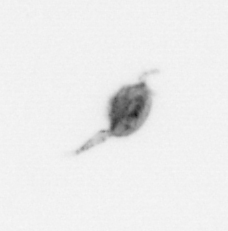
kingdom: Animalia
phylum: Arthropoda
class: Copepoda
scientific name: Copepoda
